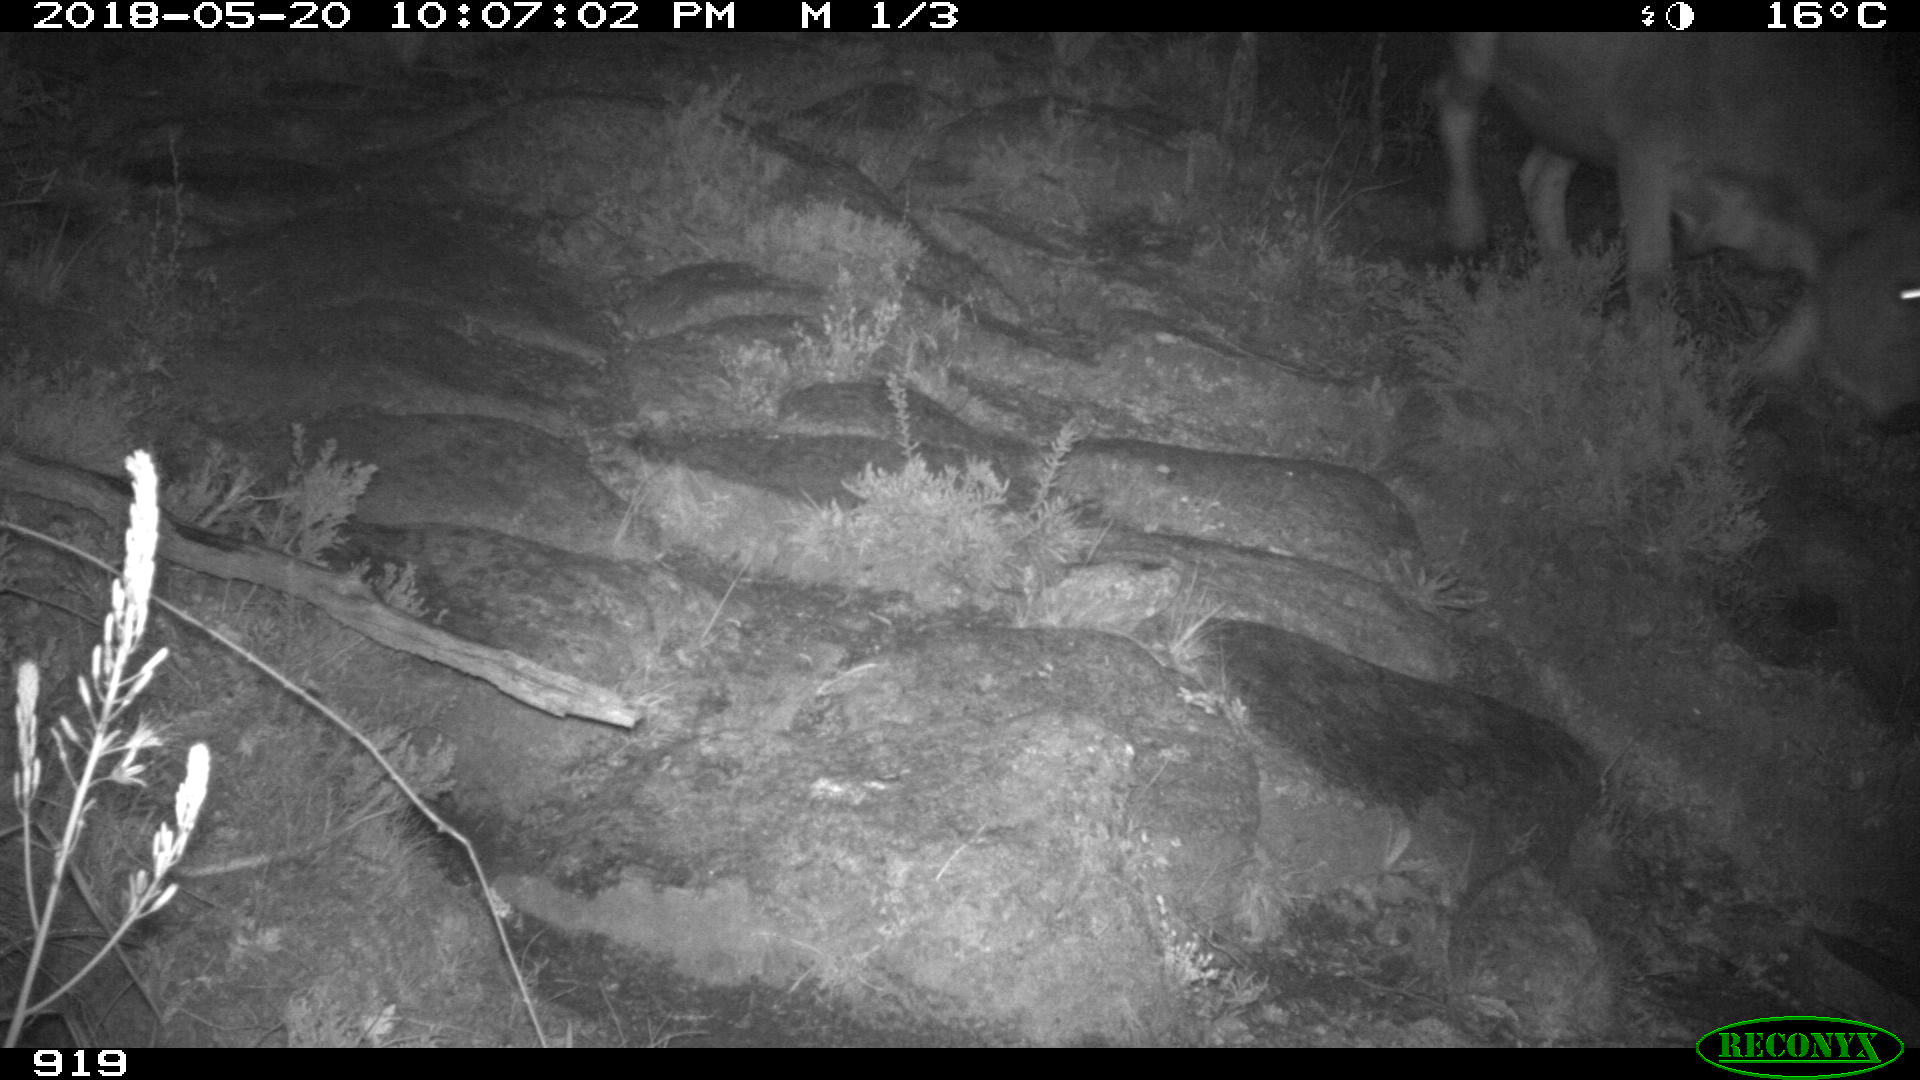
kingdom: Animalia
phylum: Chordata
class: Mammalia
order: Artiodactyla
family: Bovidae
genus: Bos
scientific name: Bos taurus
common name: Domesticated cattle
